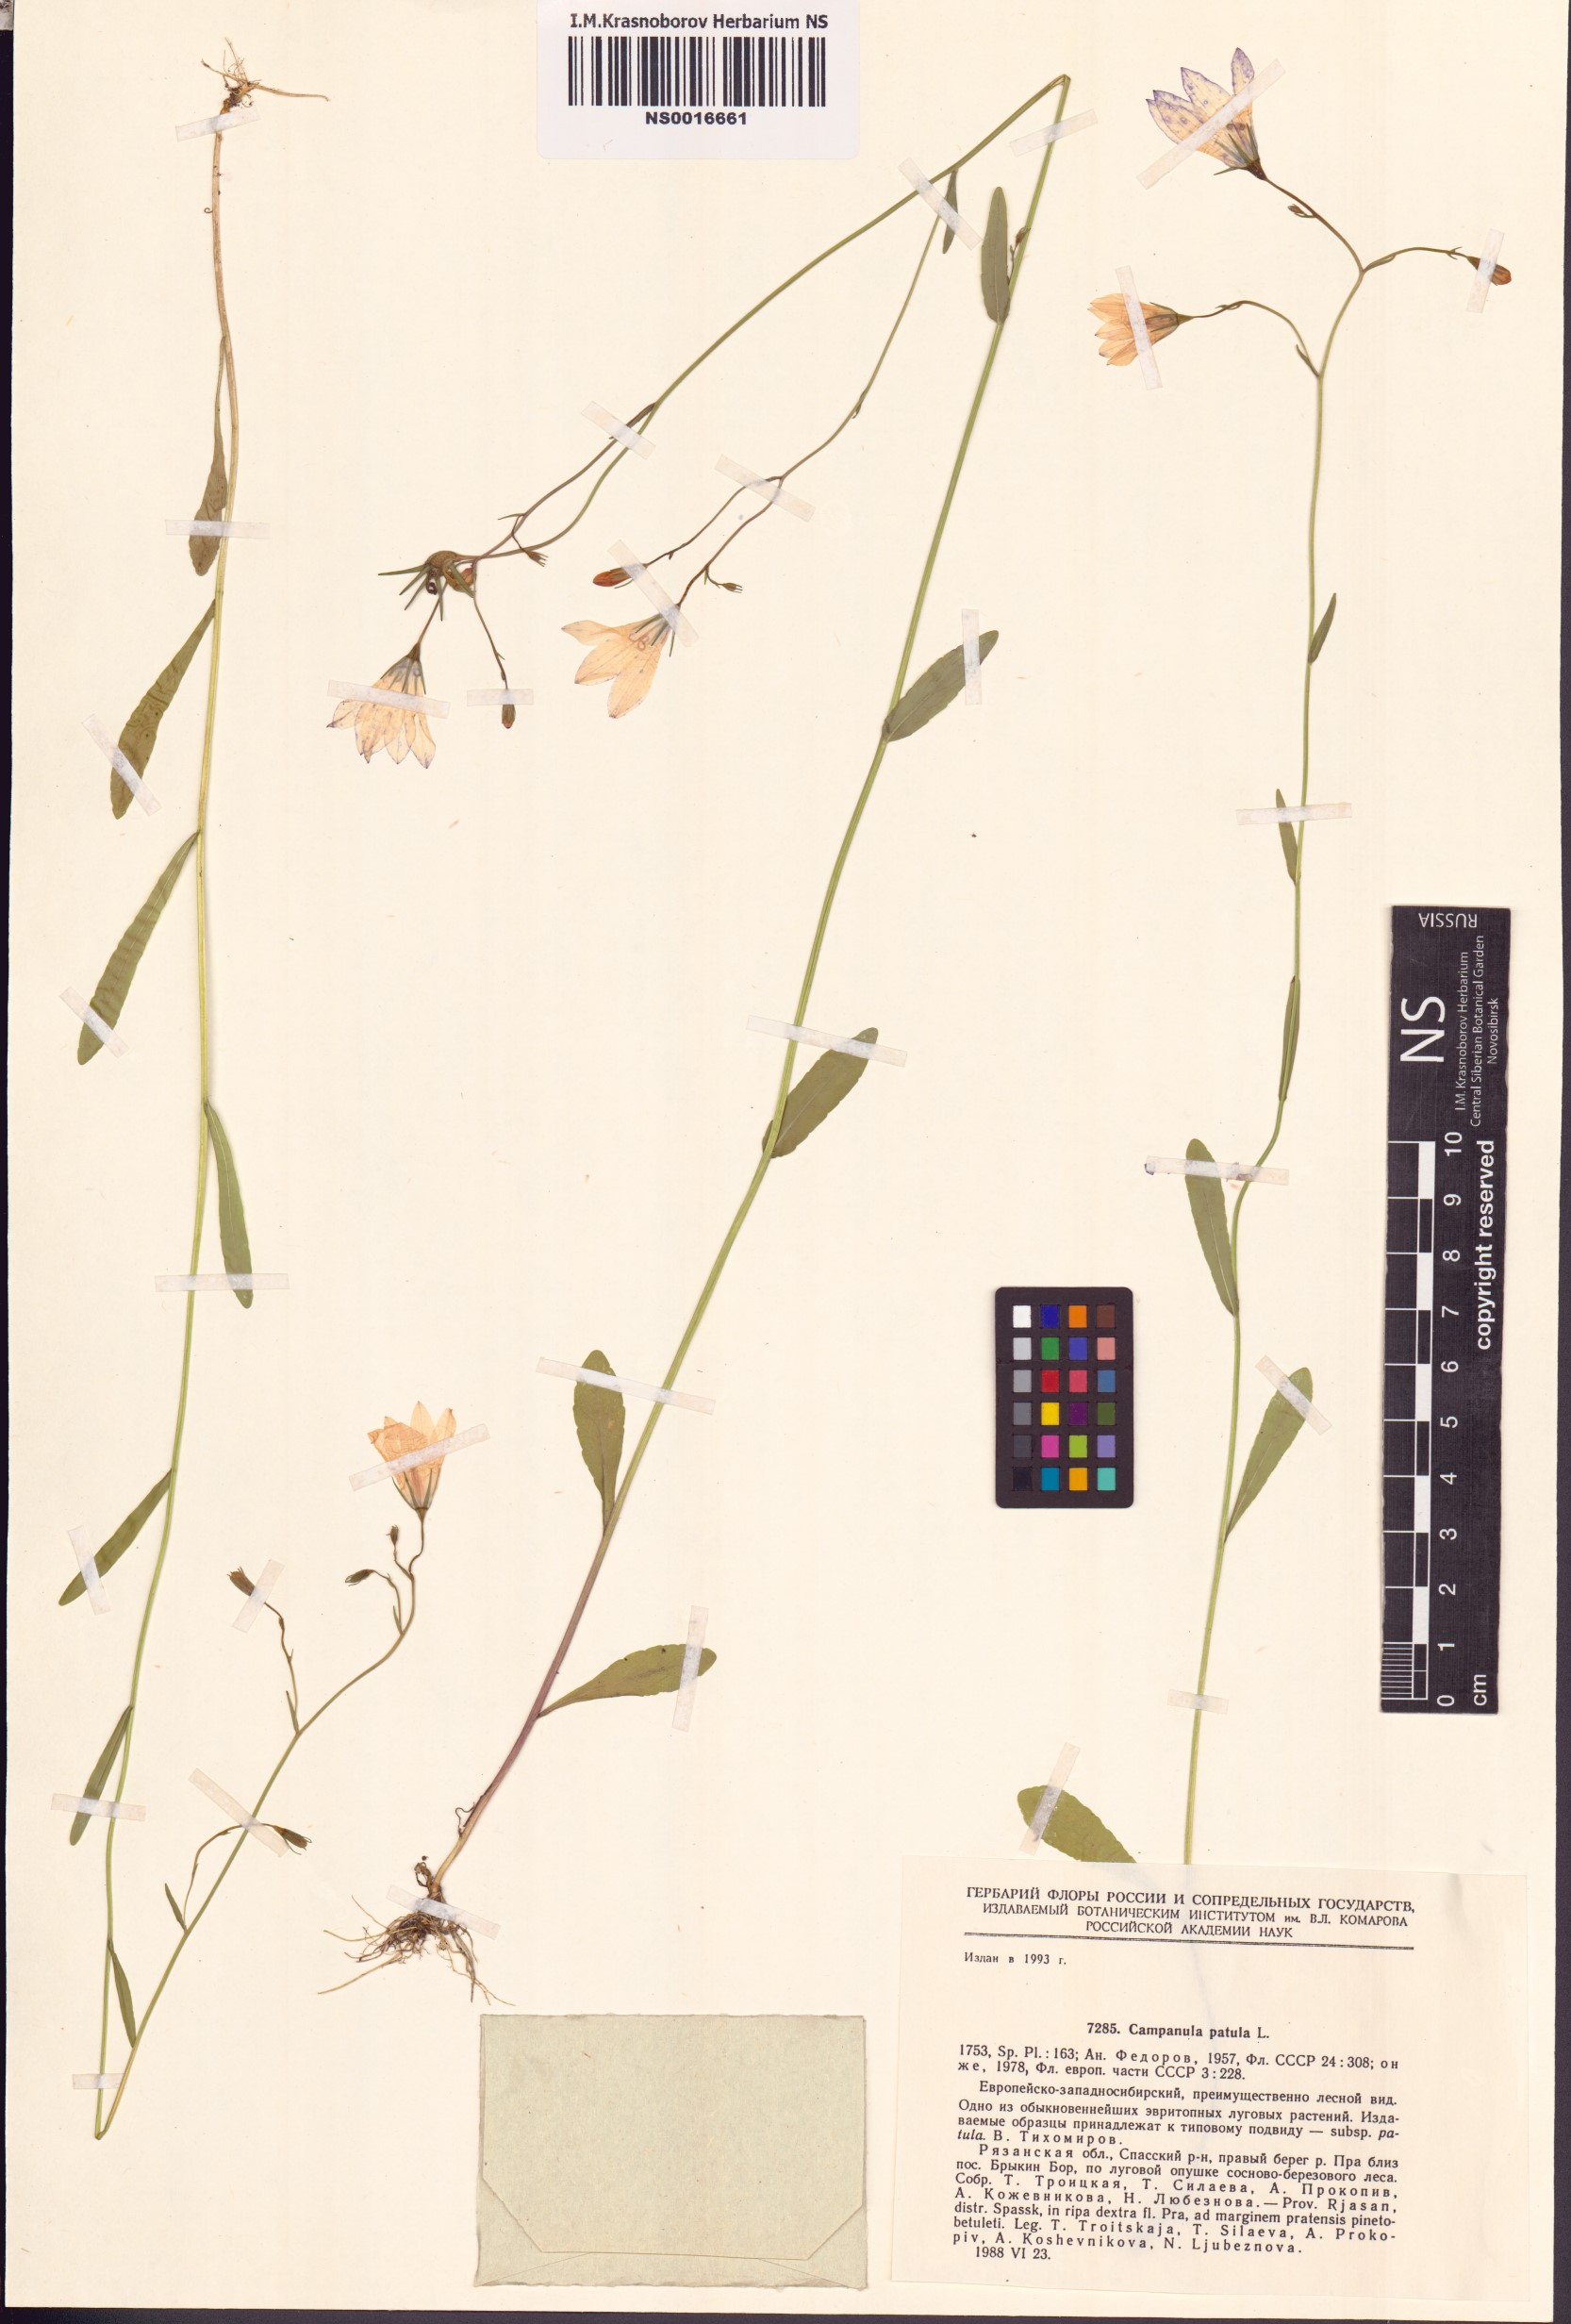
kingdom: Plantae
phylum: Tracheophyta
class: Magnoliopsida
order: Asterales
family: Campanulaceae
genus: Campanula
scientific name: Campanula patula
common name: Spreading bellflower
